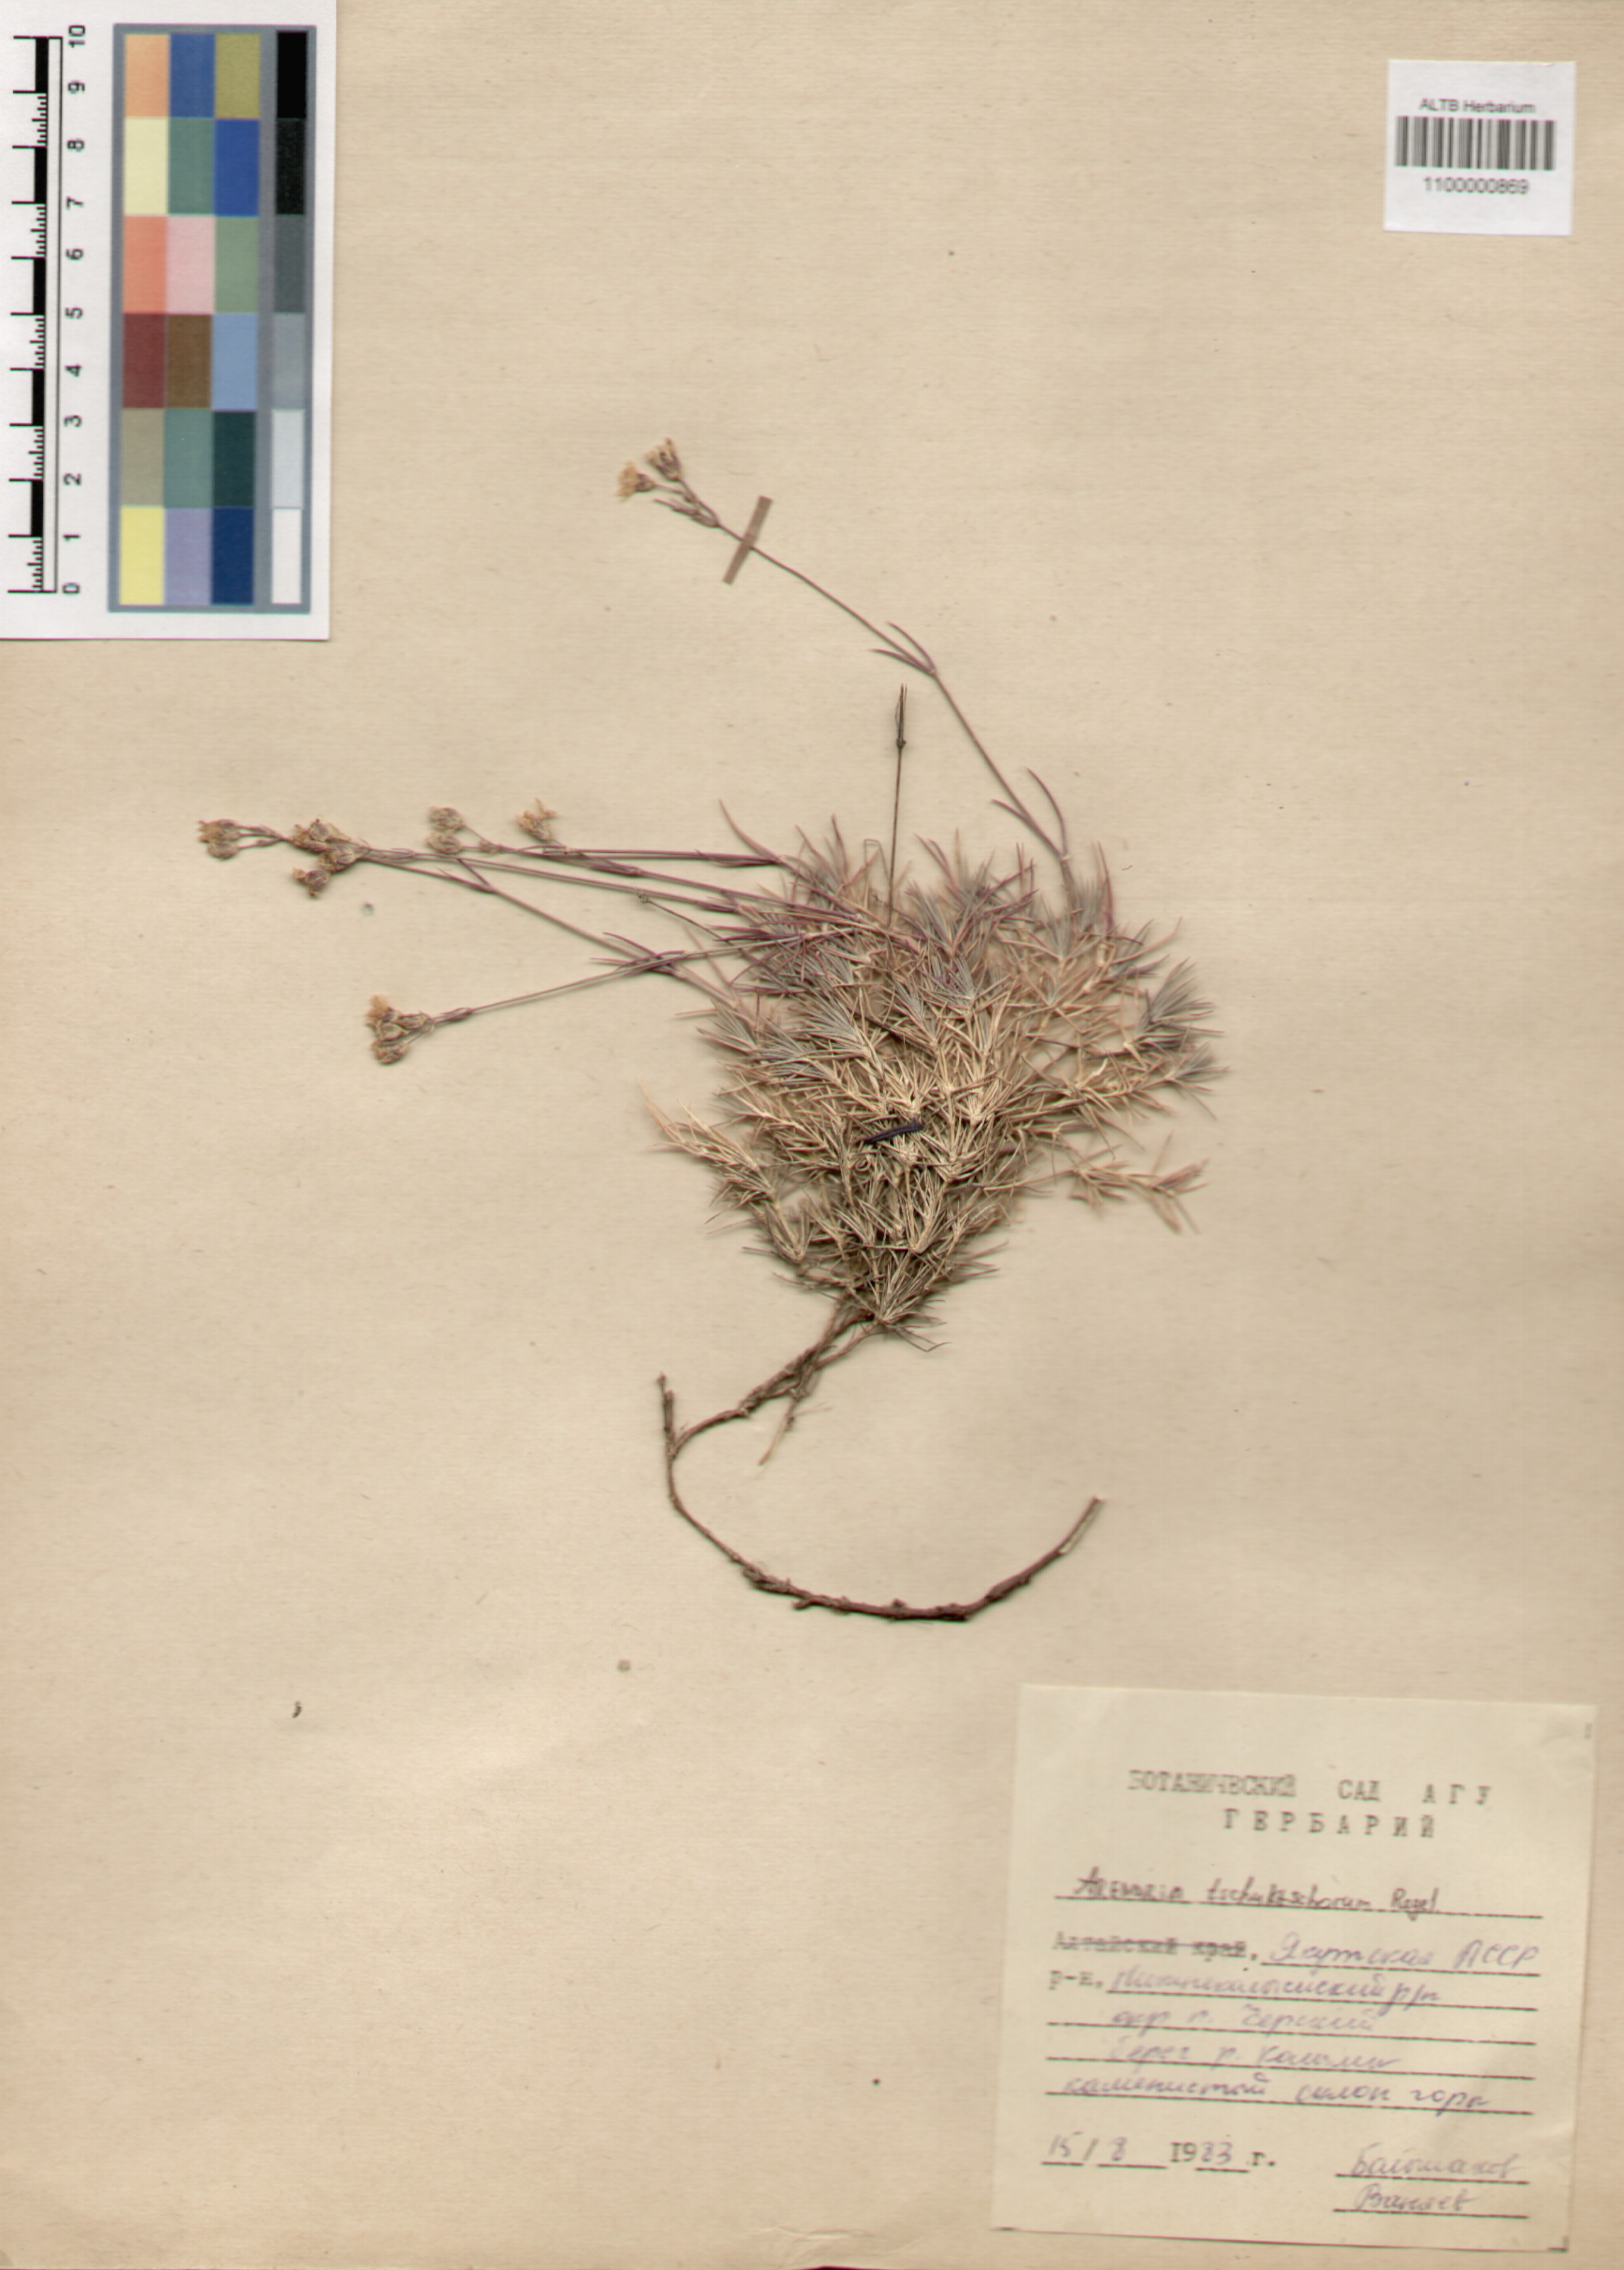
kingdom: Plantae
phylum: Tracheophyta
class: Magnoliopsida
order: Caryophyllales
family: Caryophyllaceae
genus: Eremogone
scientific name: Eremogone tschuktschorum
